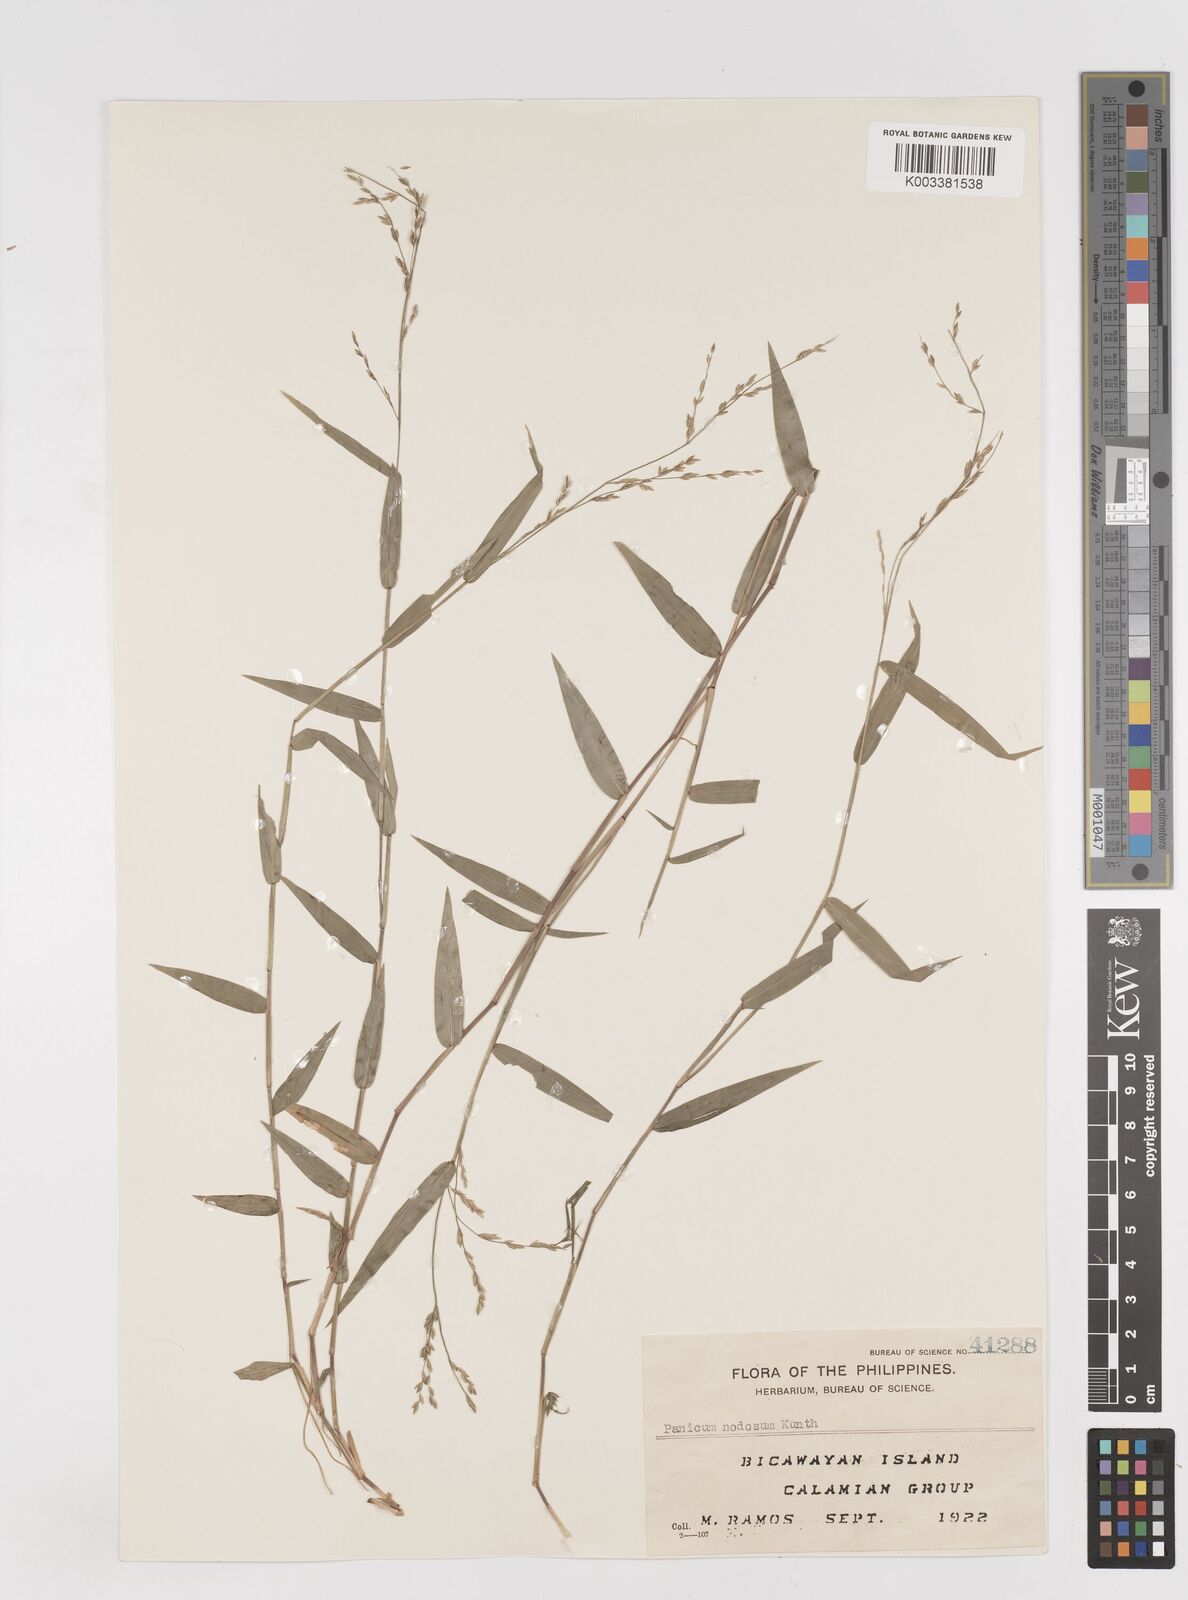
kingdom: Plantae
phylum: Tracheophyta
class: Liliopsida
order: Poales
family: Poaceae
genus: Ottochloa
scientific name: Ottochloa nodosa
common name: Slender-panic grass
